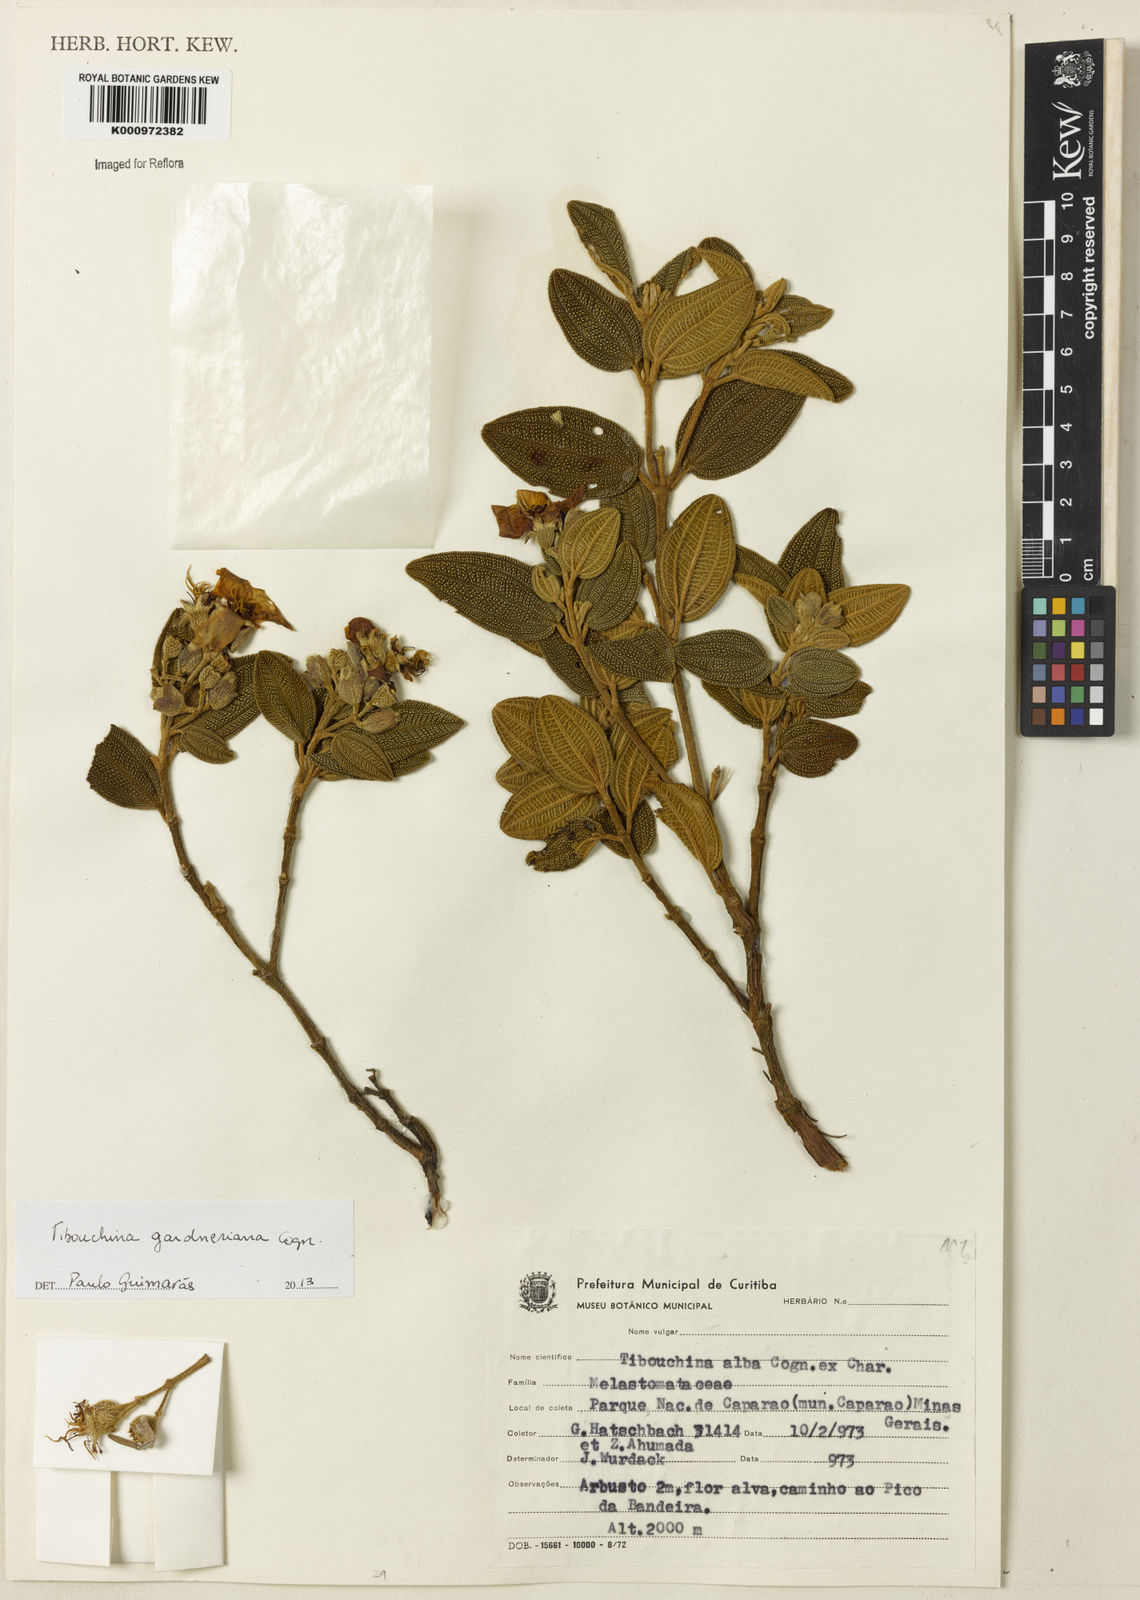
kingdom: Plantae
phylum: Tracheophyta
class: Magnoliopsida
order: Myrtales
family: Melastomataceae
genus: Pleroma
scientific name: Pleroma echinatum
